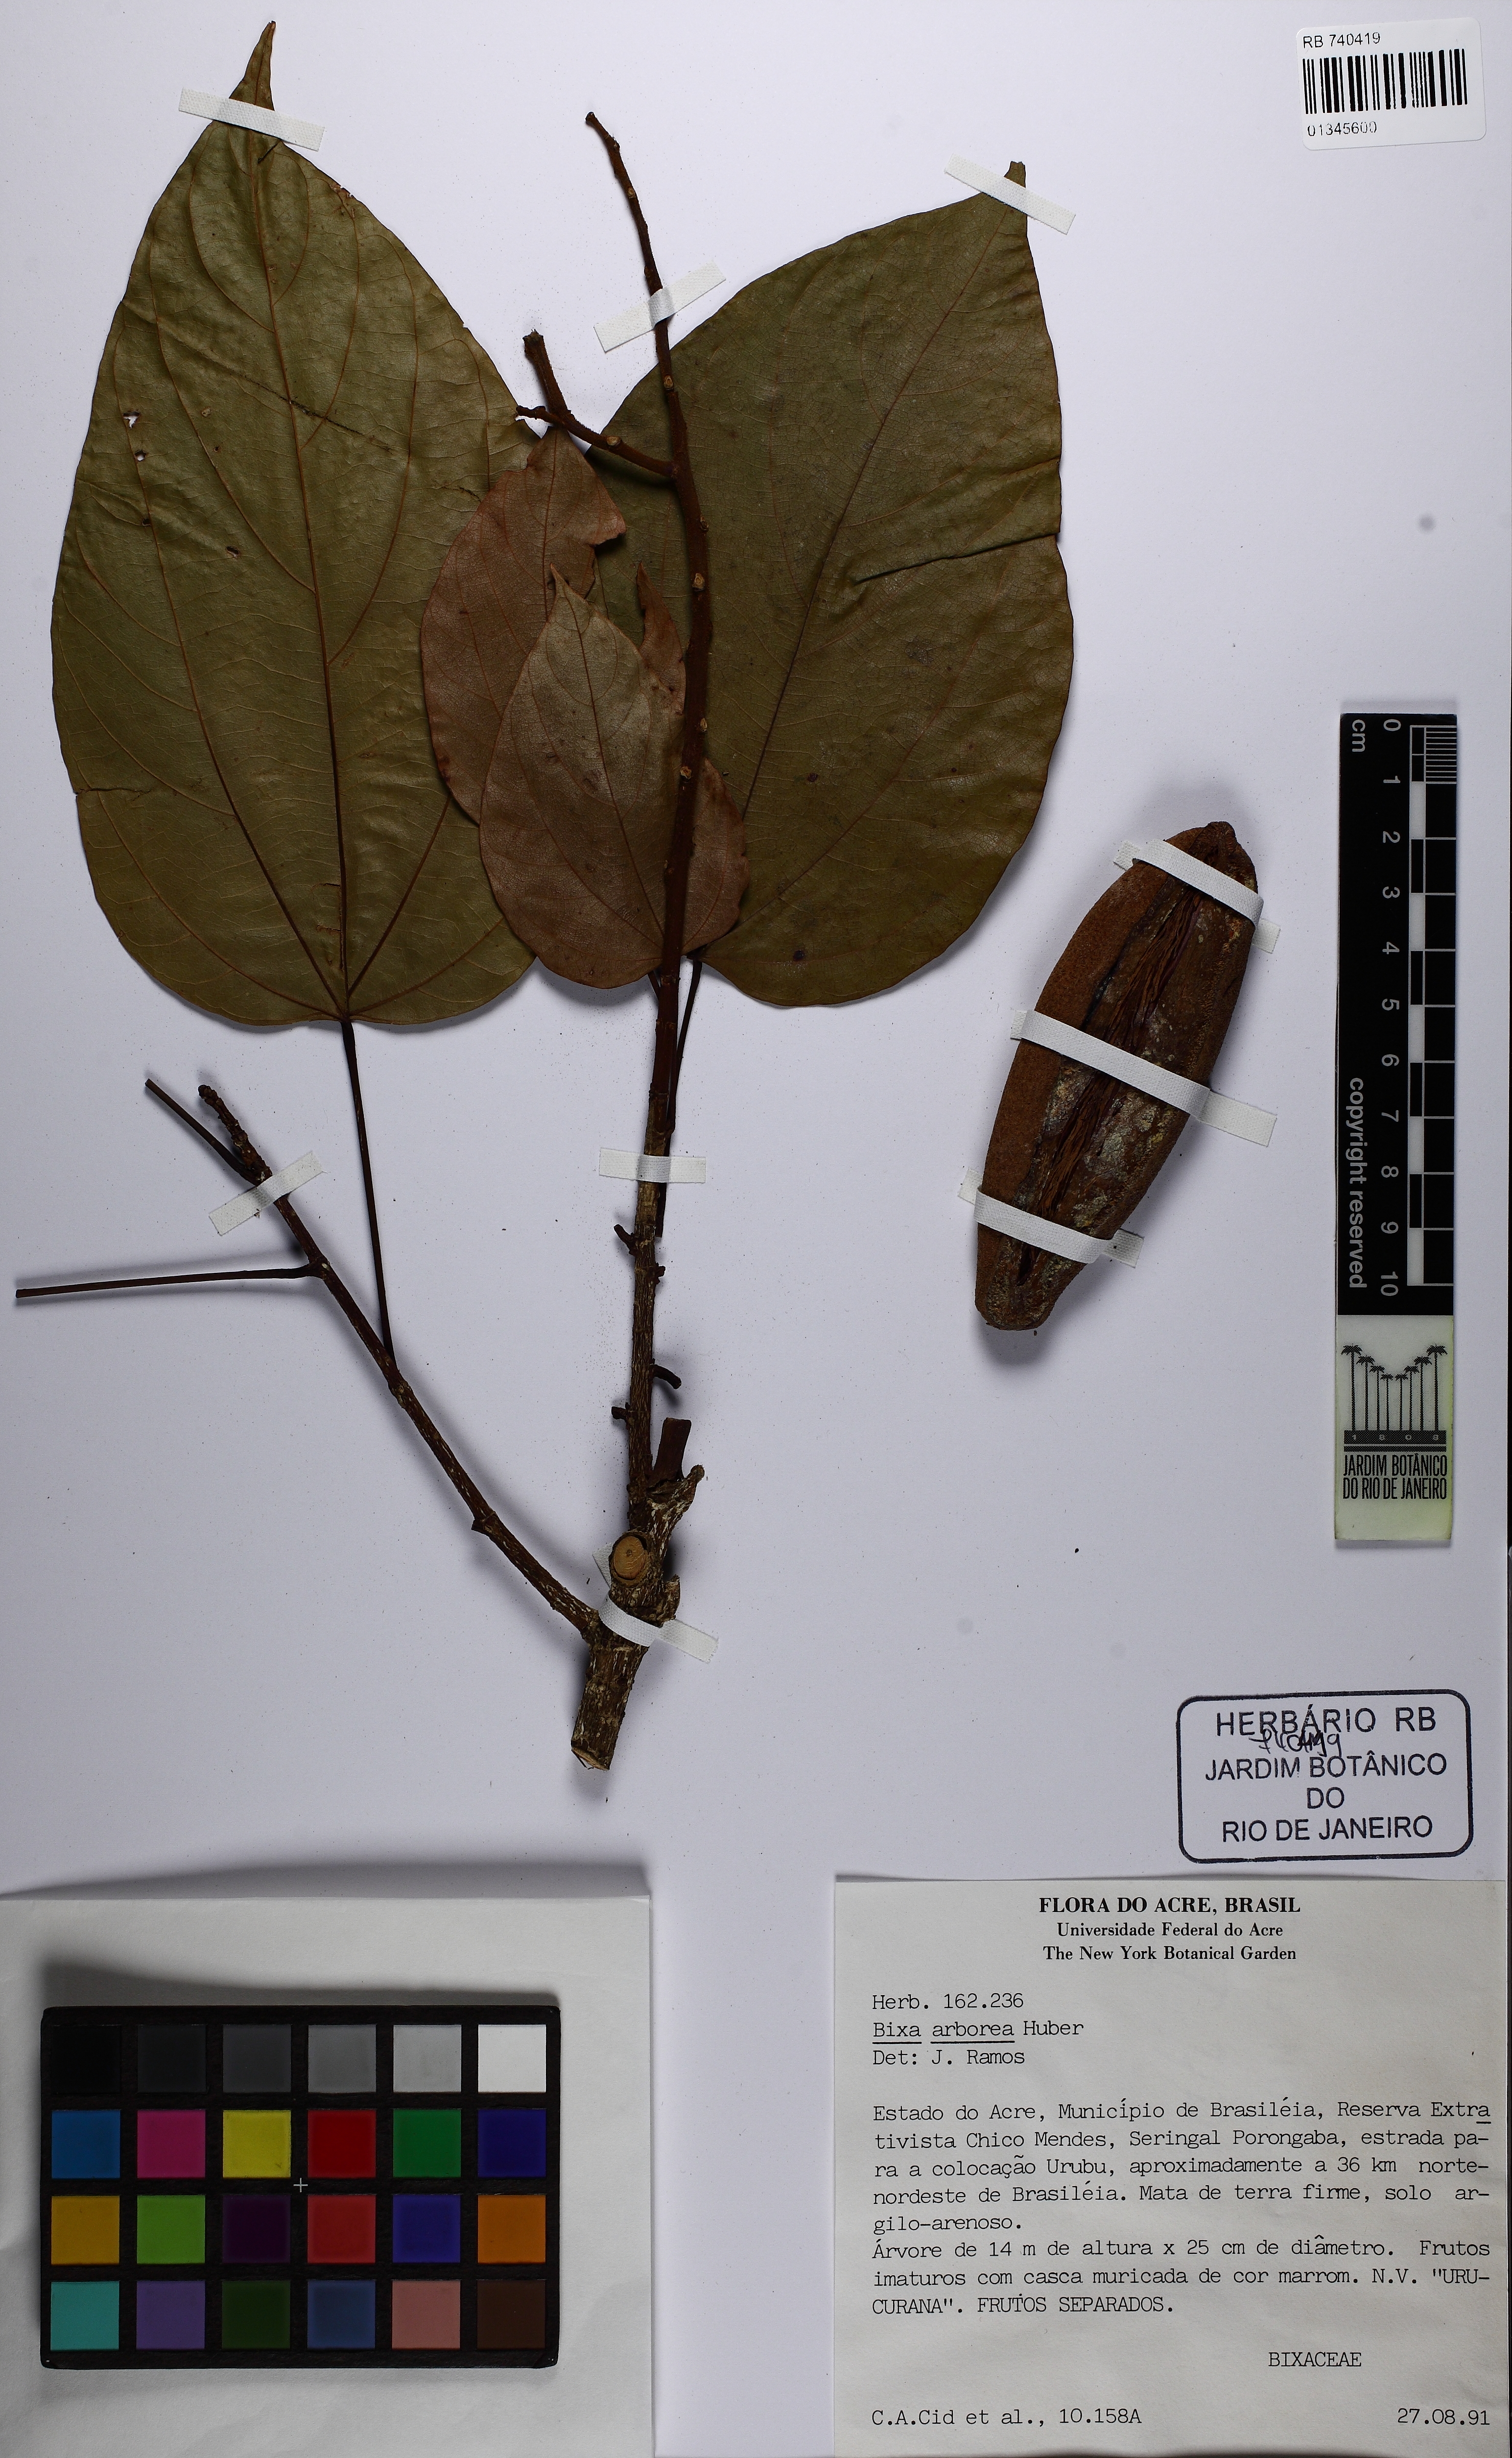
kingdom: Plantae
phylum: Tracheophyta
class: Magnoliopsida
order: Malvales
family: Bixaceae
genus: Bixa
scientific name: Bixa arborea
